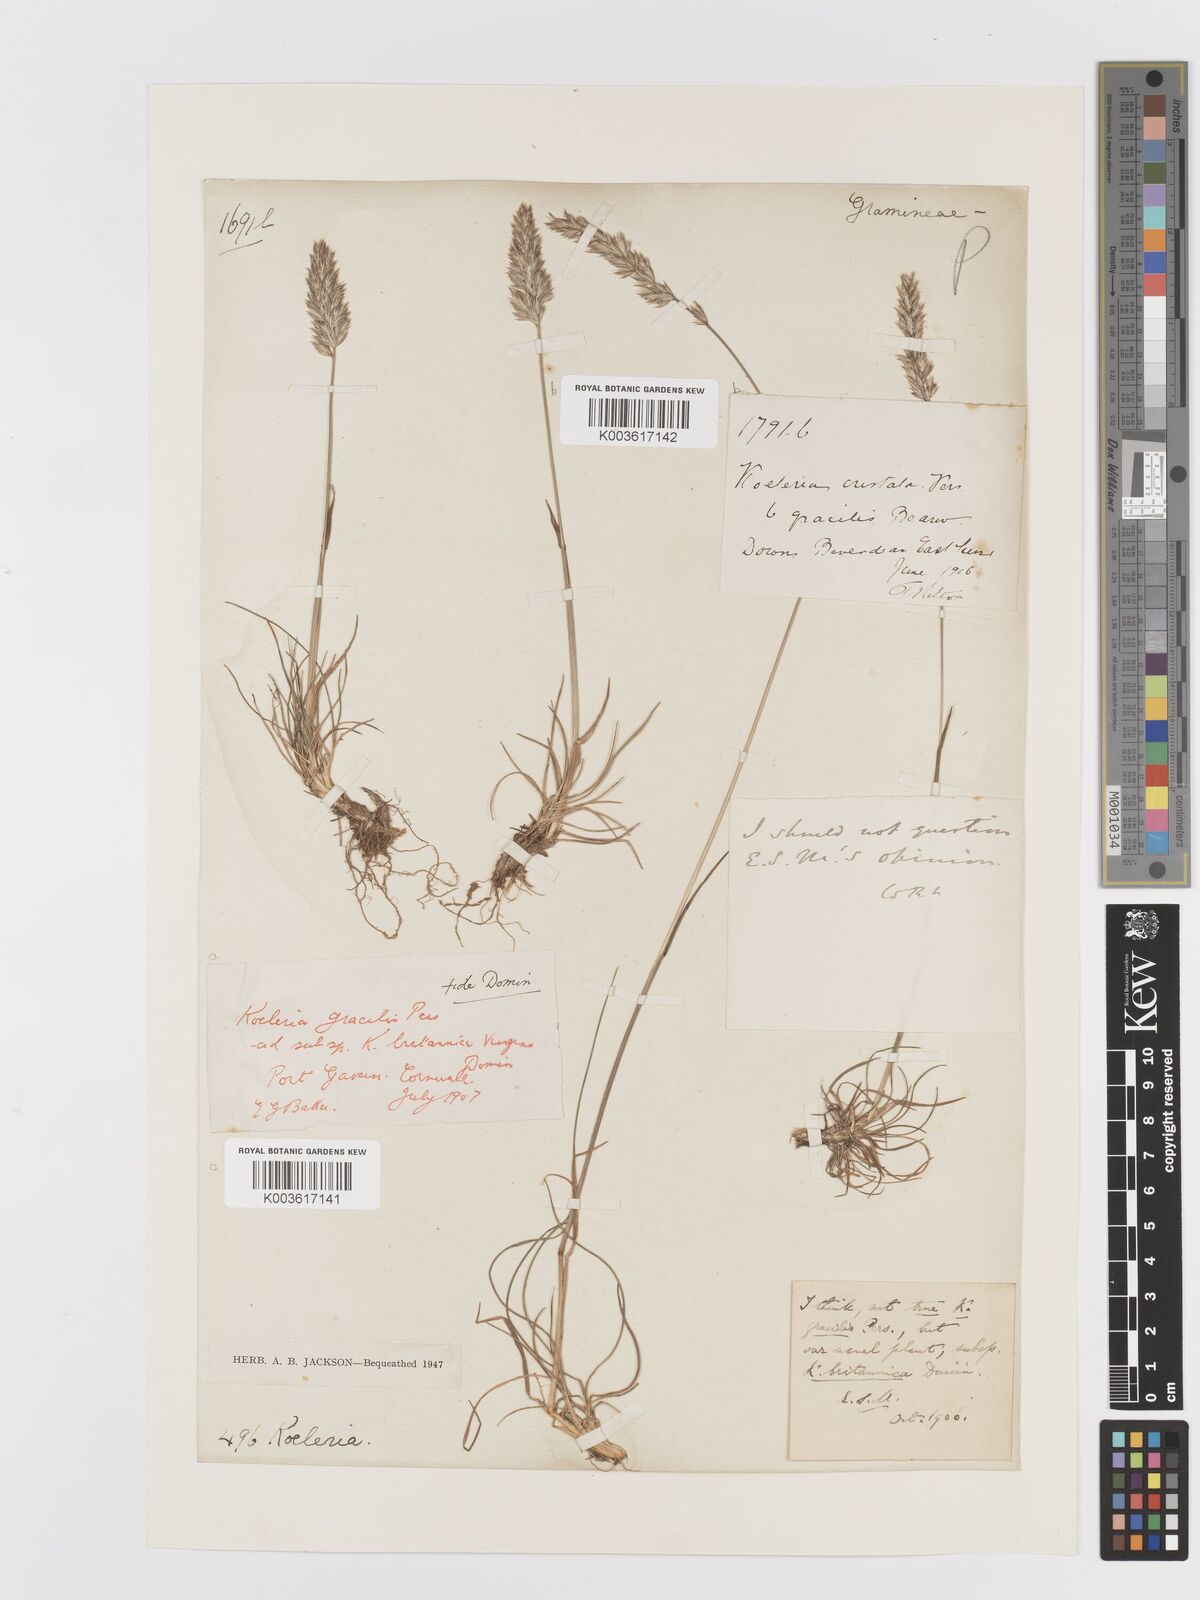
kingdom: Plantae
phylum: Tracheophyta
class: Liliopsida
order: Poales
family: Poaceae
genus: Koeleria
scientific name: Koeleria macrantha
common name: Crested hair-grass
